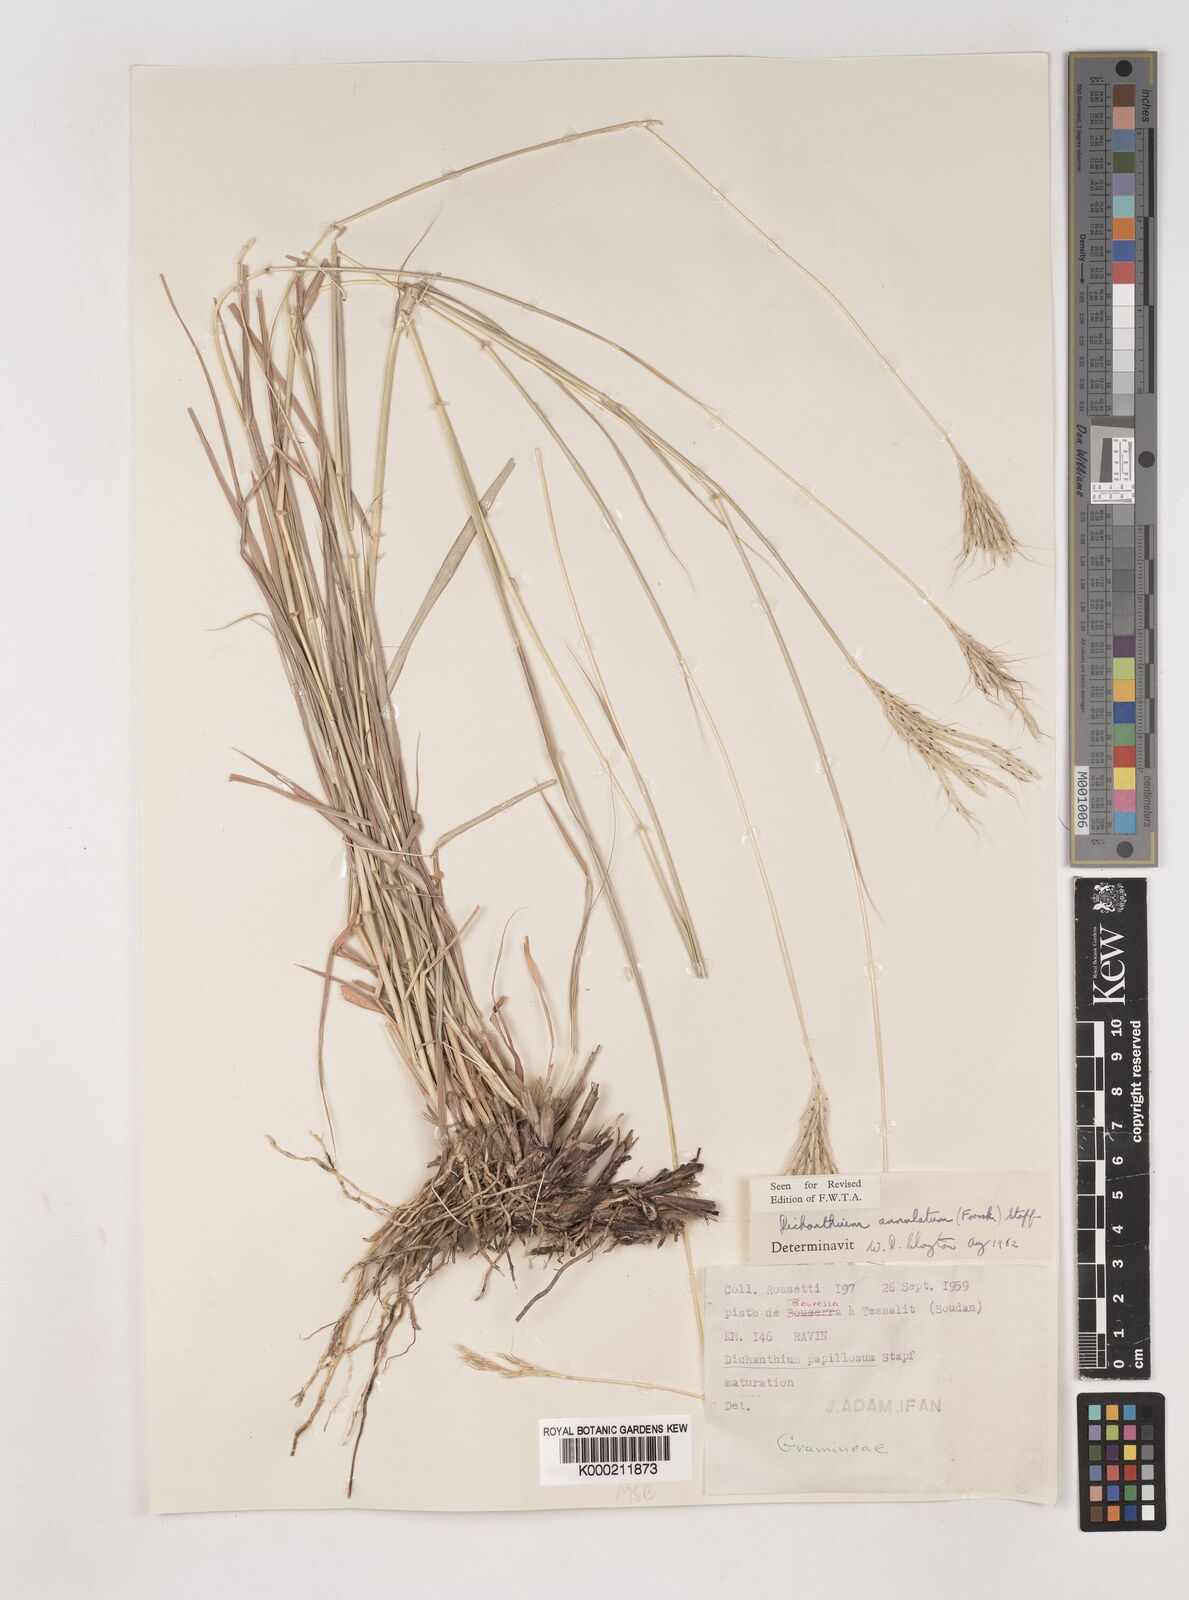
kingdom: Plantae
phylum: Tracheophyta
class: Liliopsida
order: Poales
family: Poaceae
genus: Dichanthium
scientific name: Dichanthium annulatum
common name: Kleberg's bluestem
